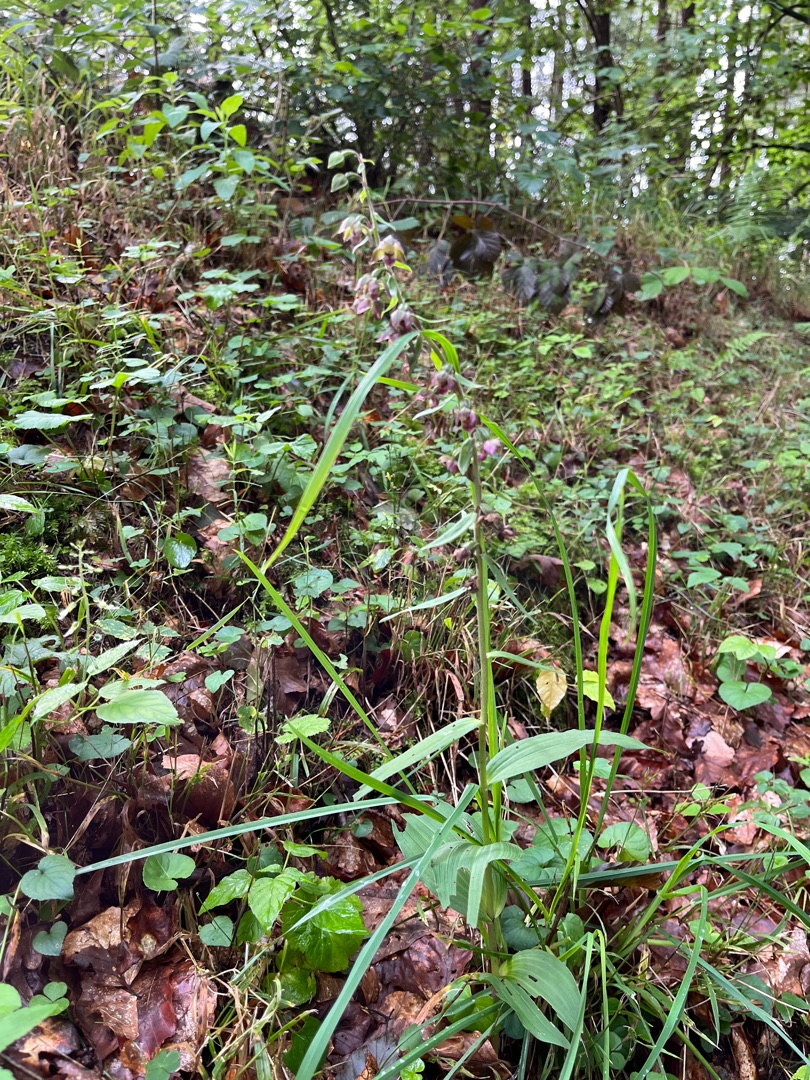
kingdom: Plantae
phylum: Tracheophyta
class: Liliopsida
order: Asparagales
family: Orchidaceae
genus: Epipactis
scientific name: Epipactis helleborine
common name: Skov-hullæbe
